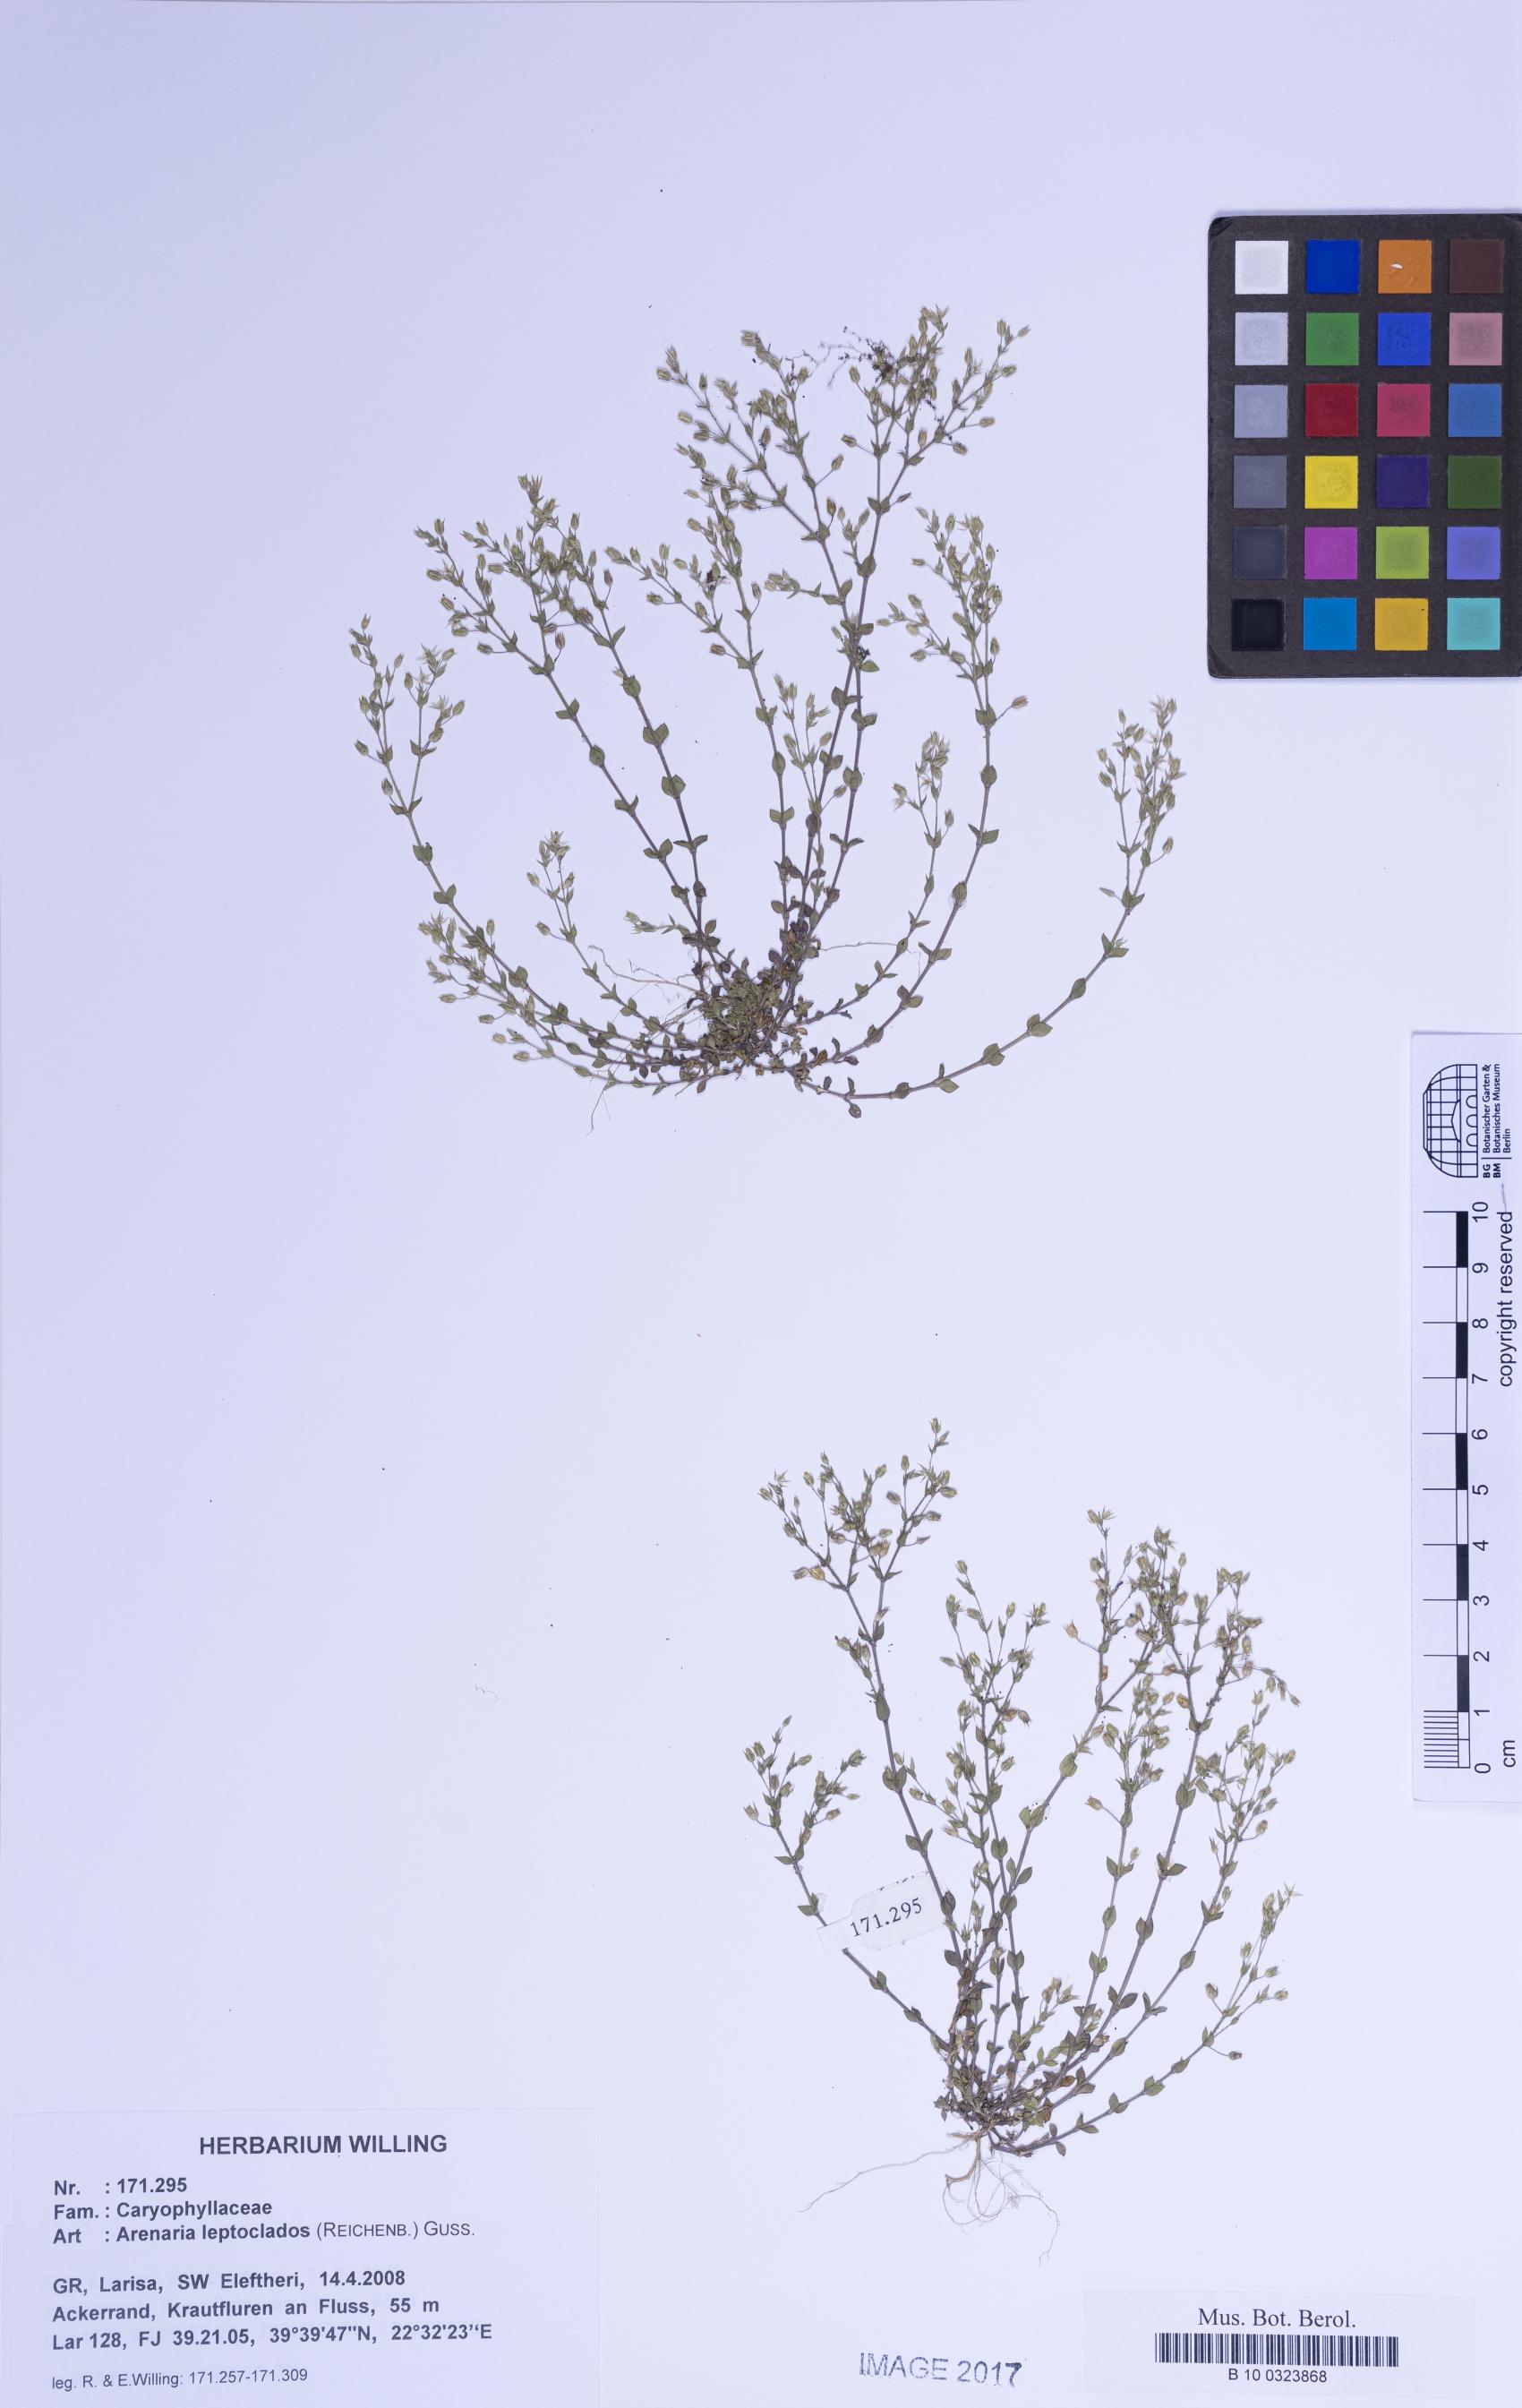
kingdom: Plantae
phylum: Tracheophyta
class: Magnoliopsida
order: Caryophyllales
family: Caryophyllaceae
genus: Arenaria
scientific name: Arenaria leptoclados
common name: Thyme-leaved sandwort
